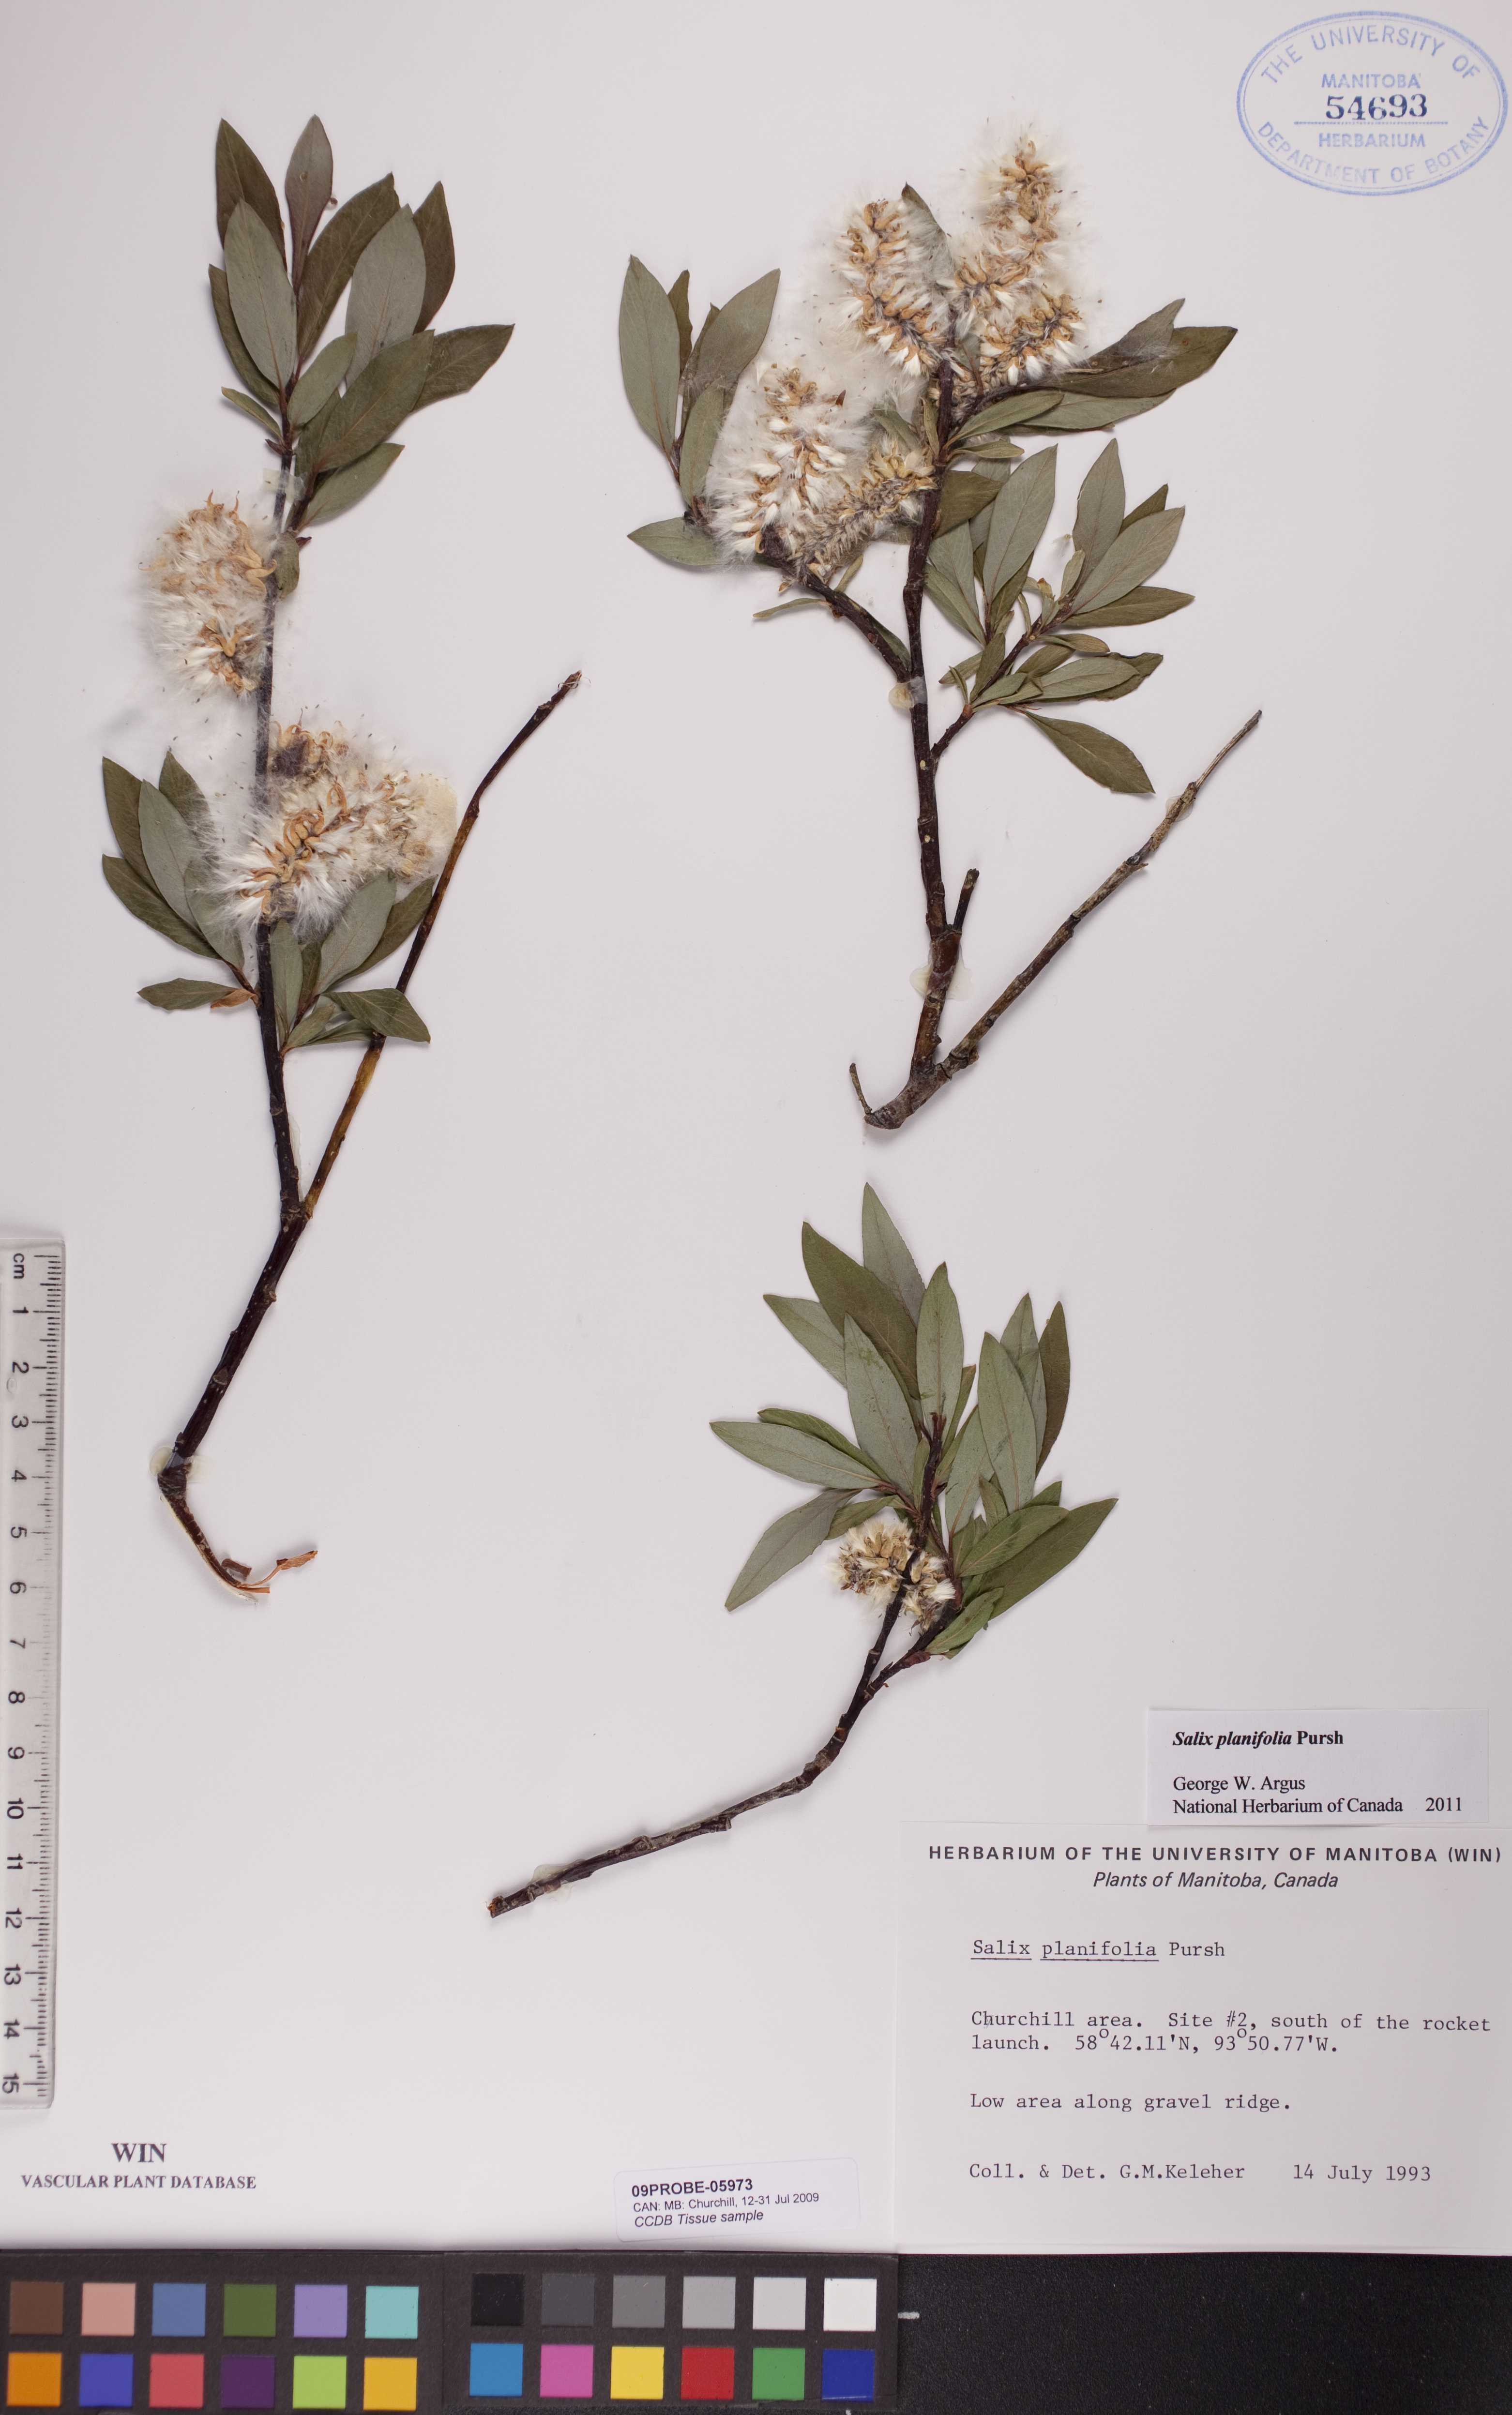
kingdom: Plantae
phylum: Tracheophyta
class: Magnoliopsida
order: Malpighiales
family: Salicaceae
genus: Salix
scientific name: Salix planifolia
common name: Mountain willow
